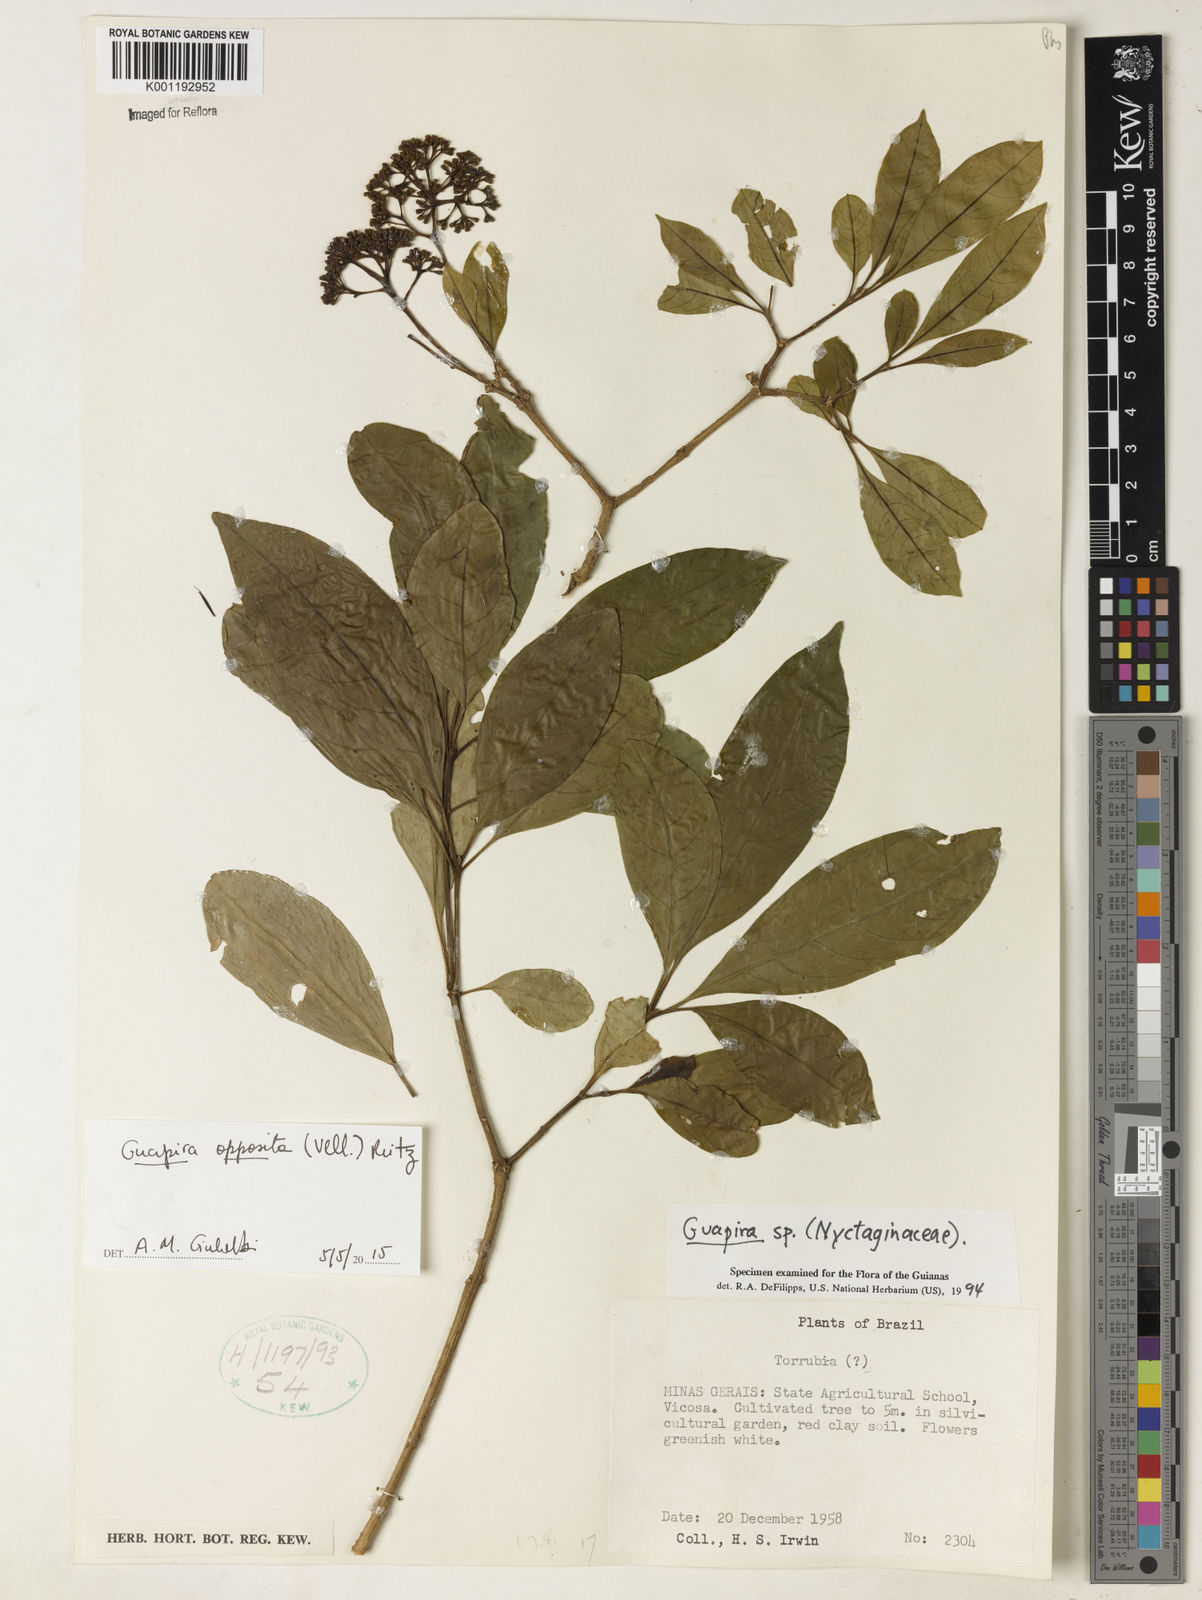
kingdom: Plantae
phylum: Tracheophyta
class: Magnoliopsida
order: Caryophyllales
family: Nyctaginaceae
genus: Guapira
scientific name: Guapira opposita
